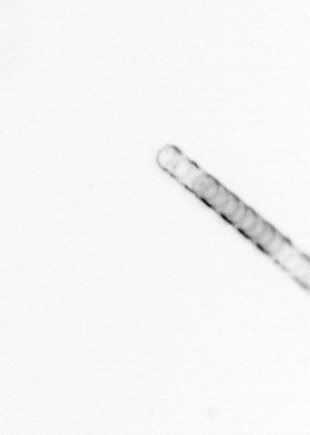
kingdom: Chromista
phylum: Ochrophyta
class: Bacillariophyceae
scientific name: Bacillariophyceae
